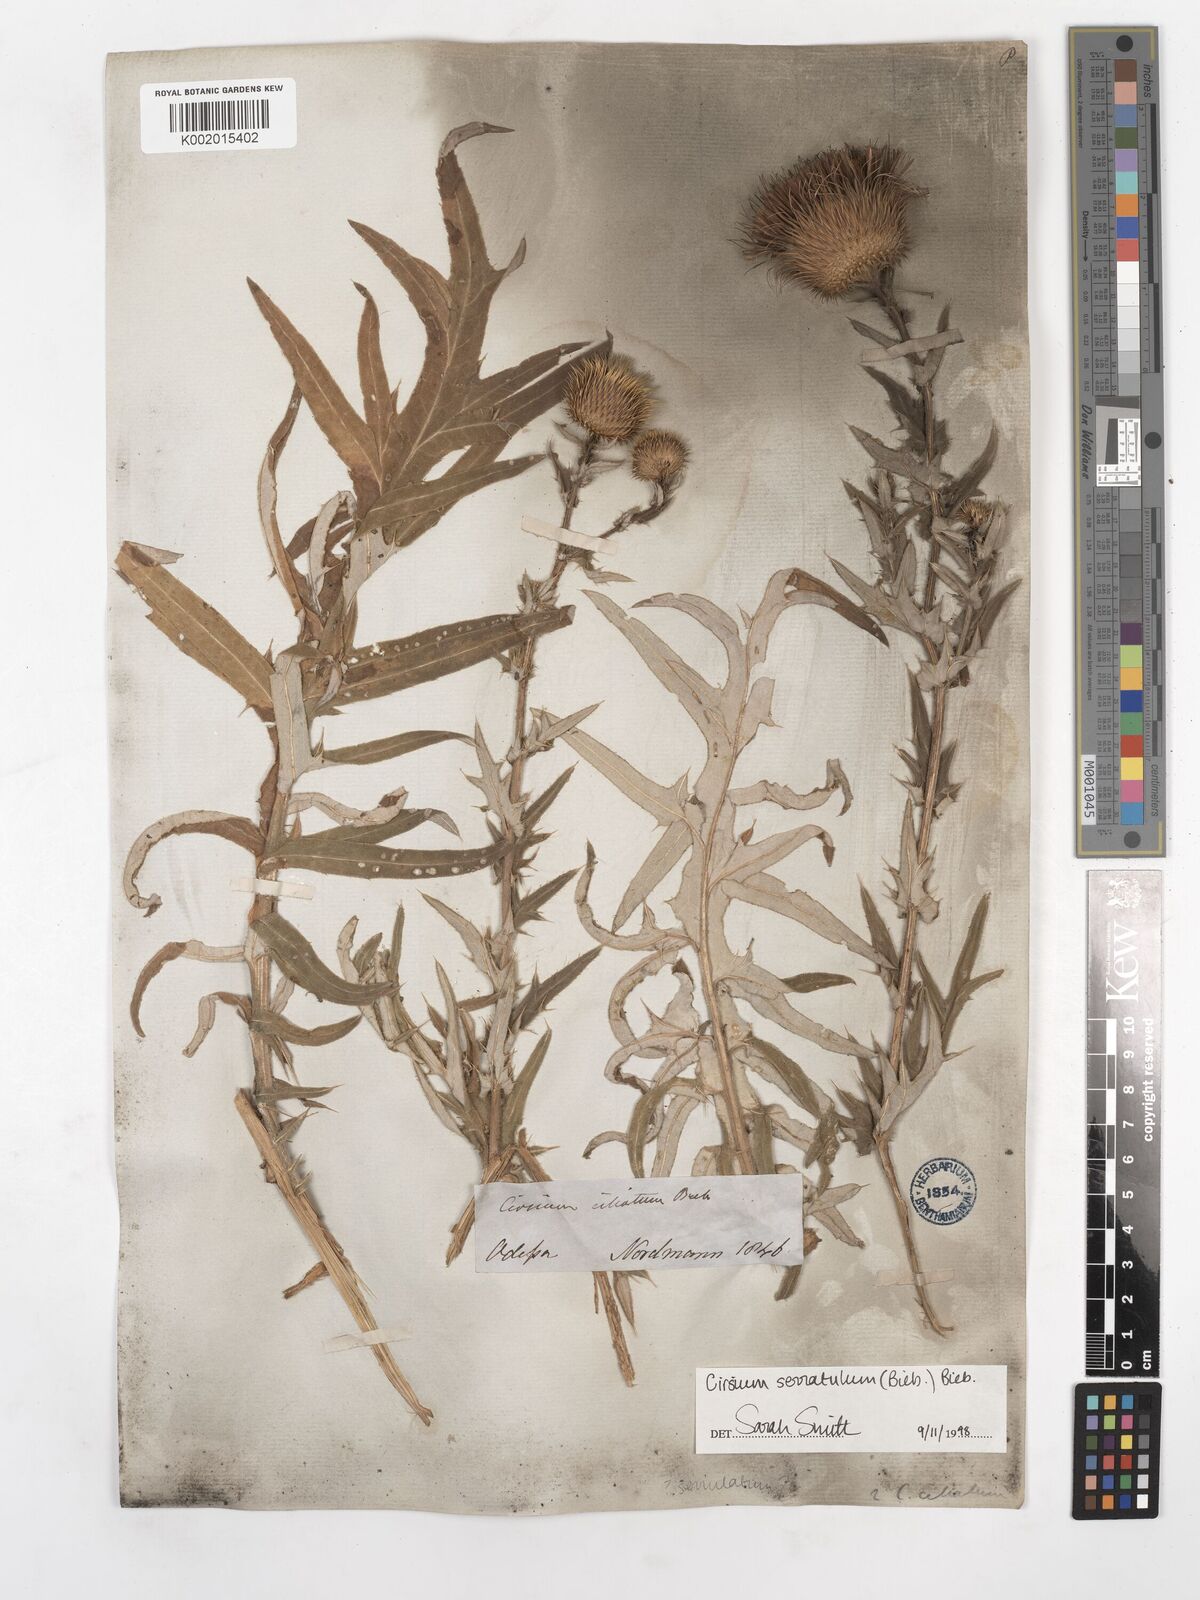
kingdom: Plantae
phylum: Tracheophyta
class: Magnoliopsida
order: Asterales
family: Asteraceae
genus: Lophiolepis
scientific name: Lophiolepis serrulata
